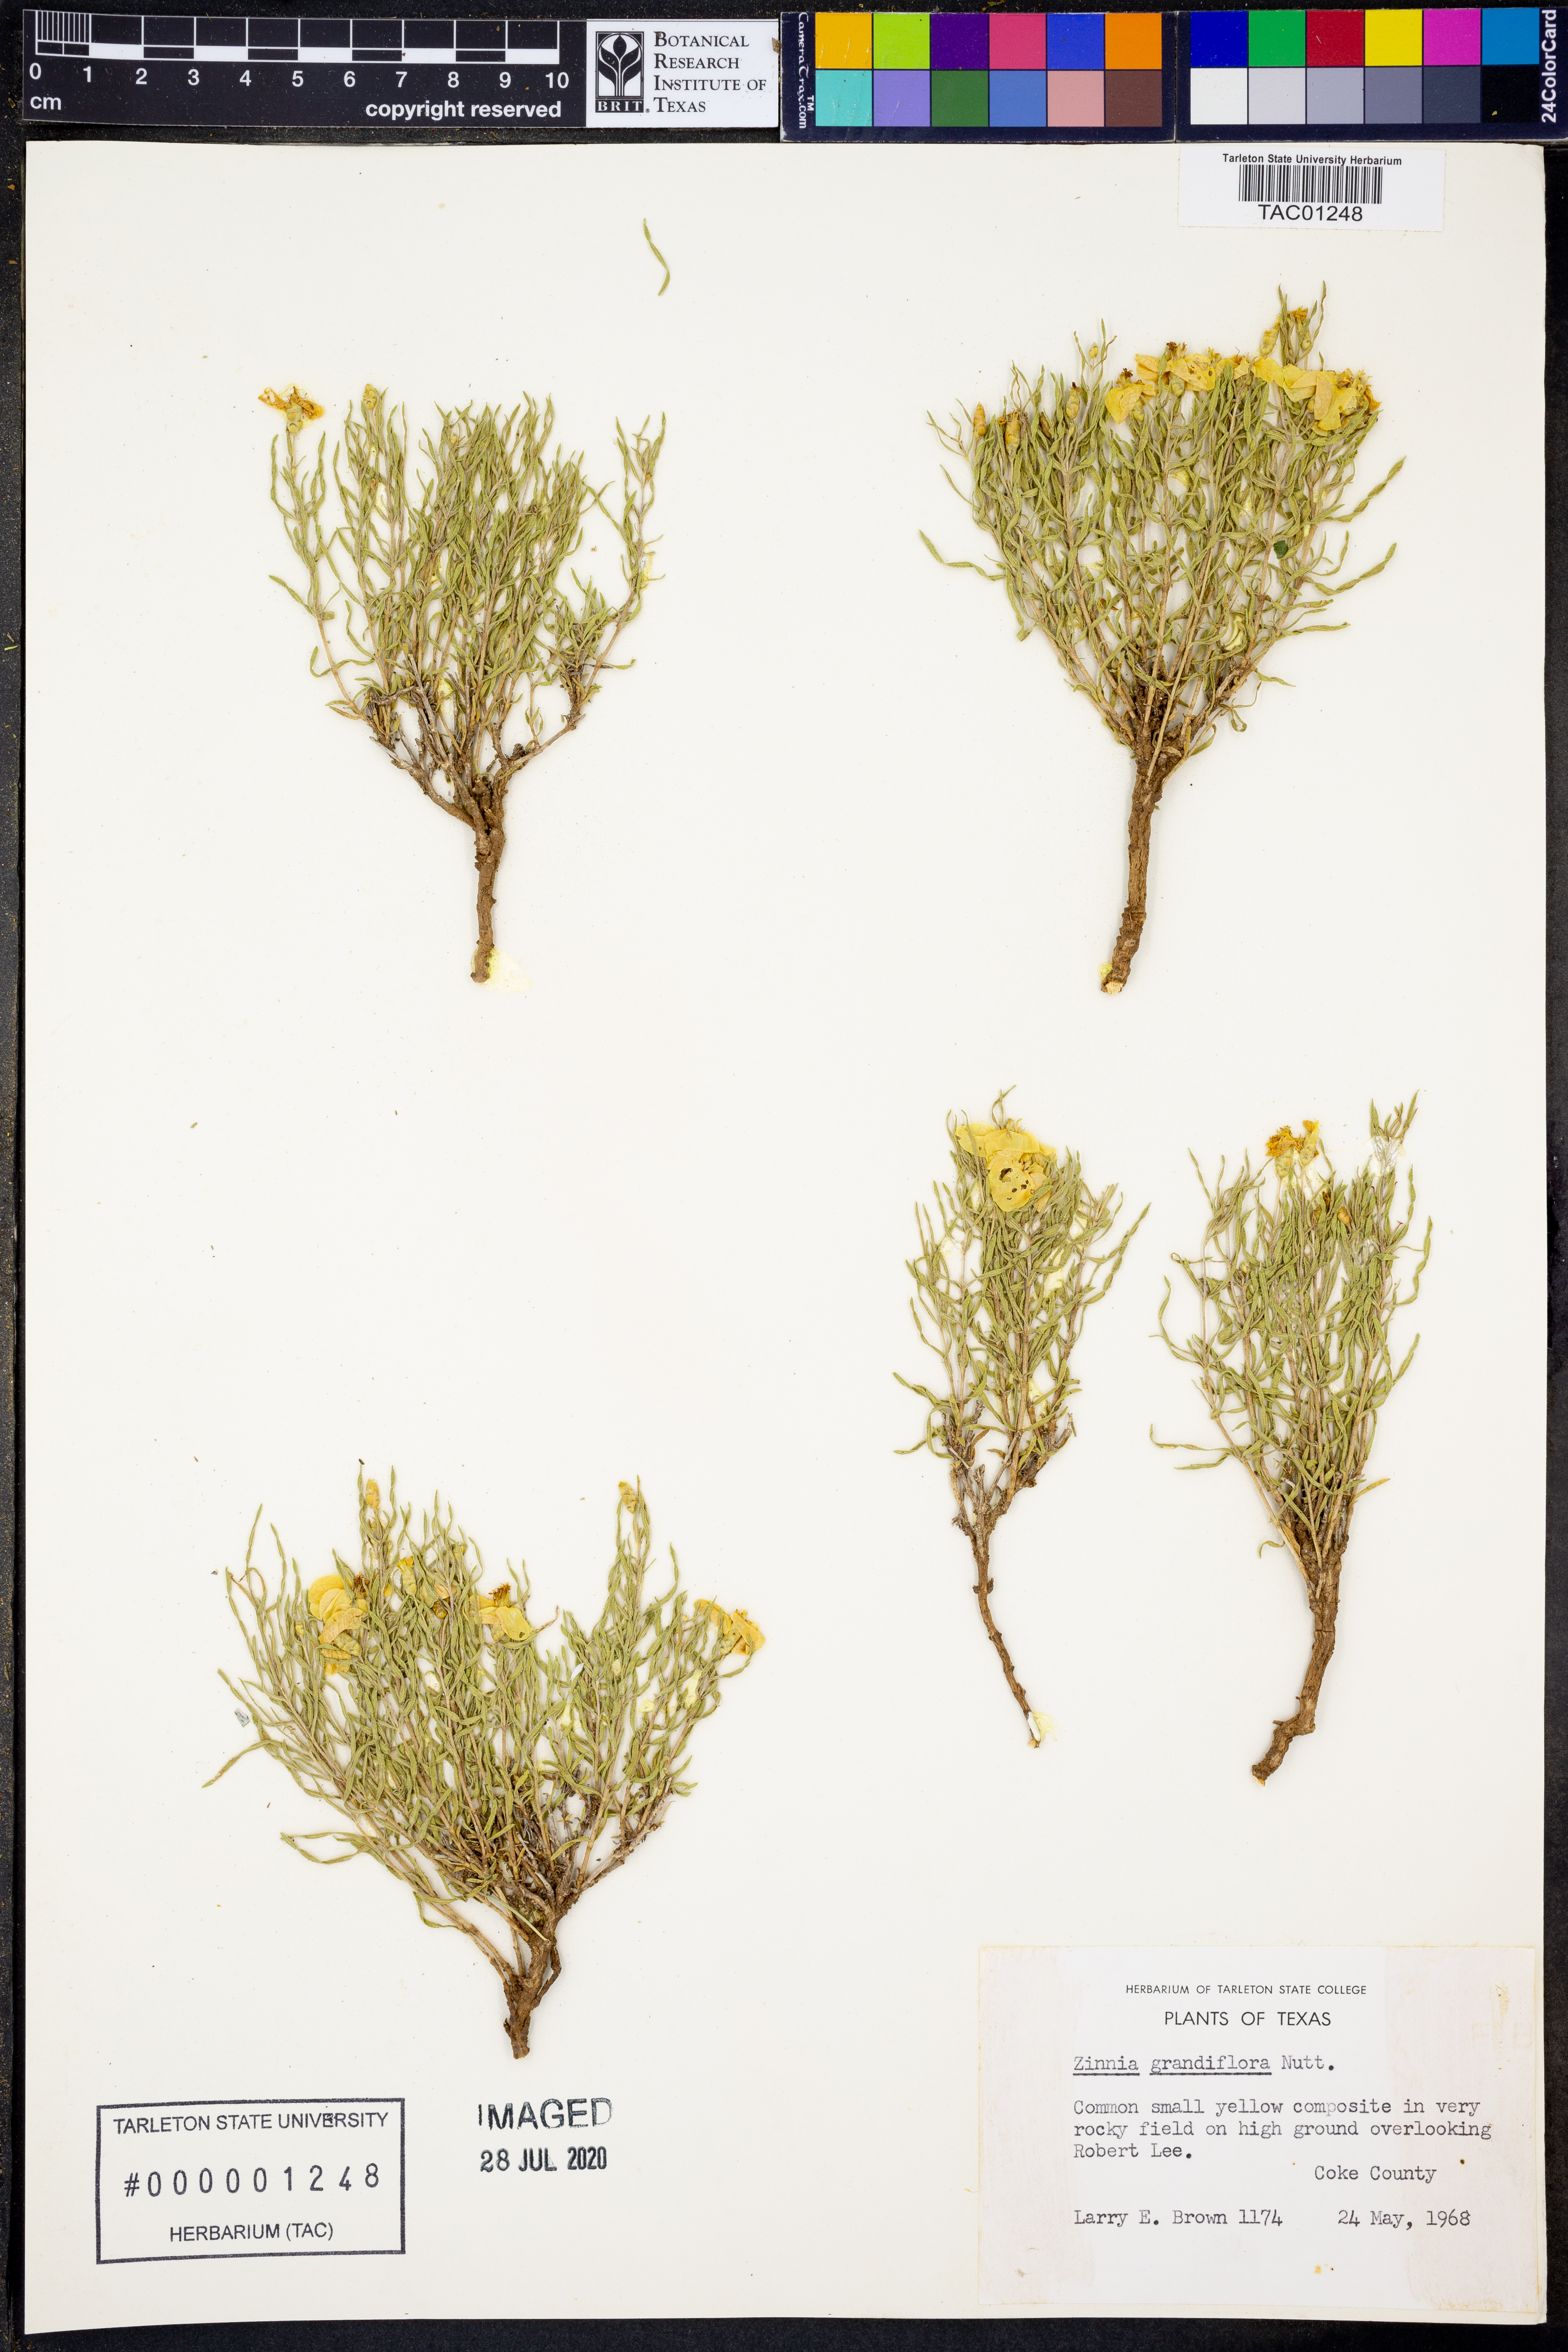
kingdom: Plantae
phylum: Tracheophyta
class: Magnoliopsida
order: Asterales
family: Asteraceae
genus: Zinnia
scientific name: Zinnia grandiflora
